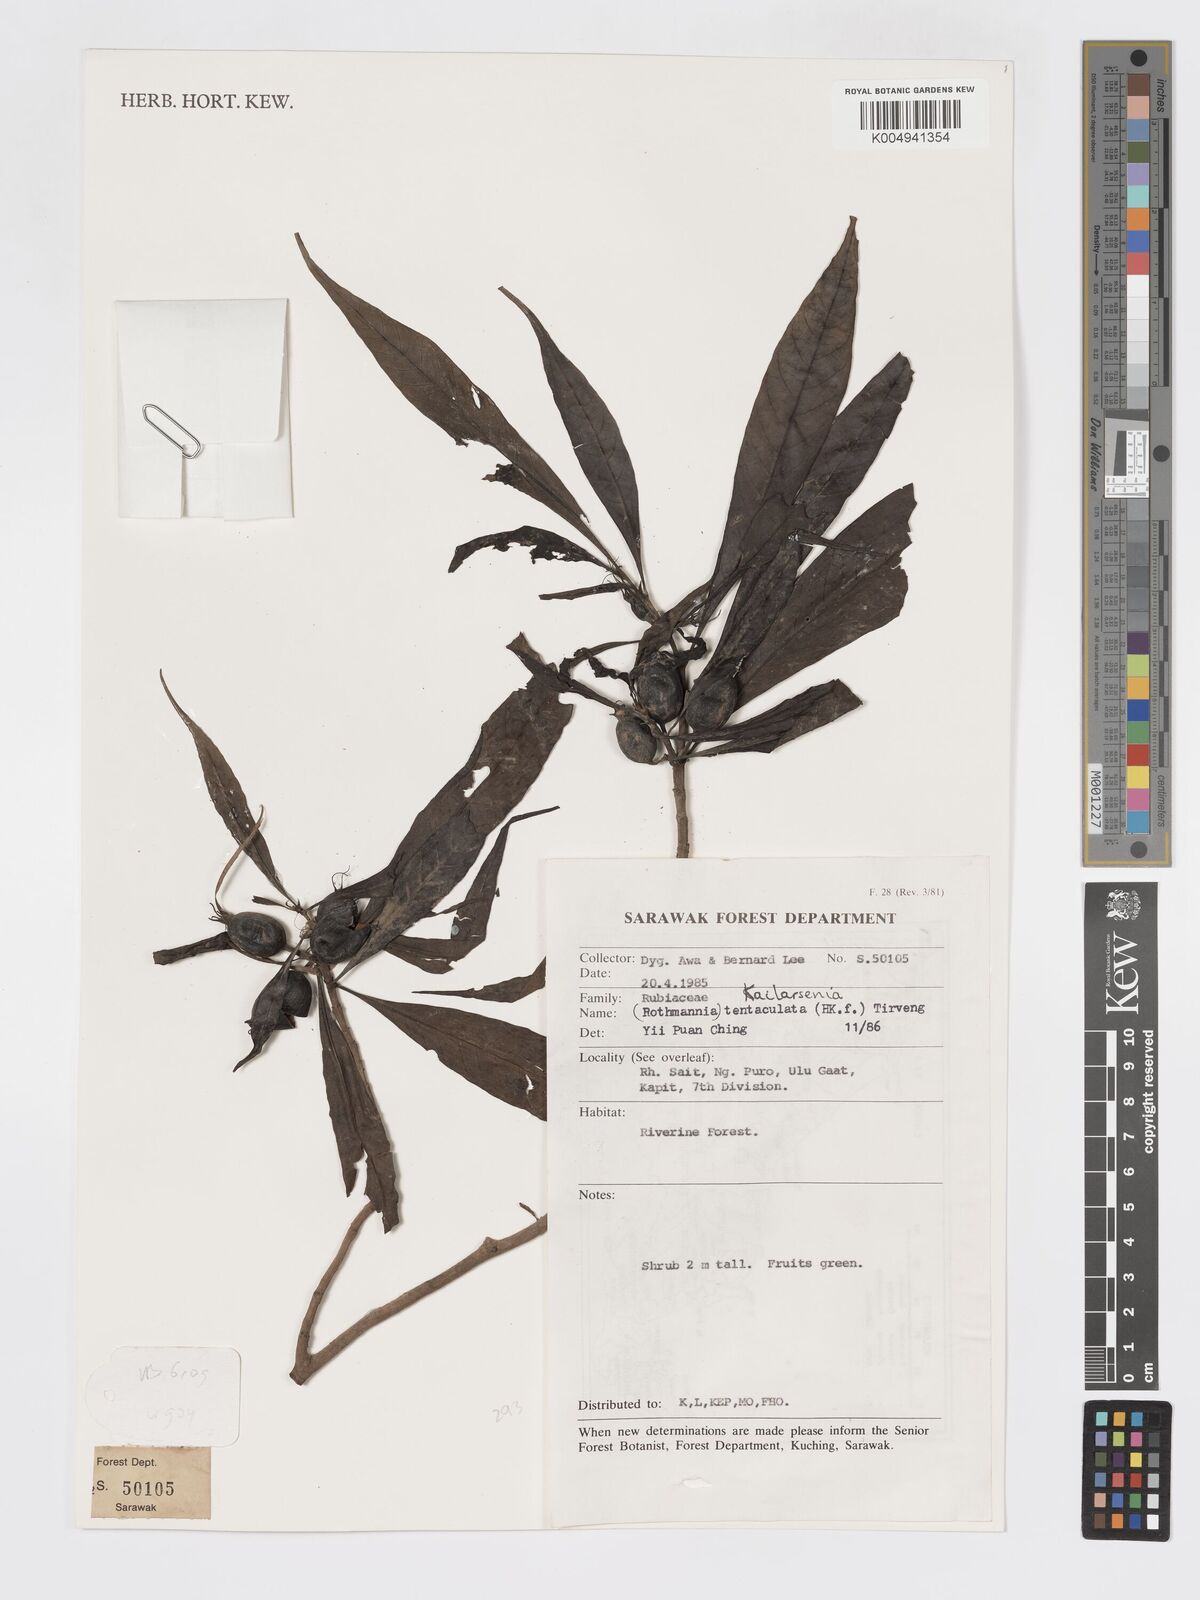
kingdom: Plantae
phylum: Tracheophyta
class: Magnoliopsida
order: Gentianales
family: Rubiaceae
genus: Kailarsenia
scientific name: Kailarsenia tentaculata
